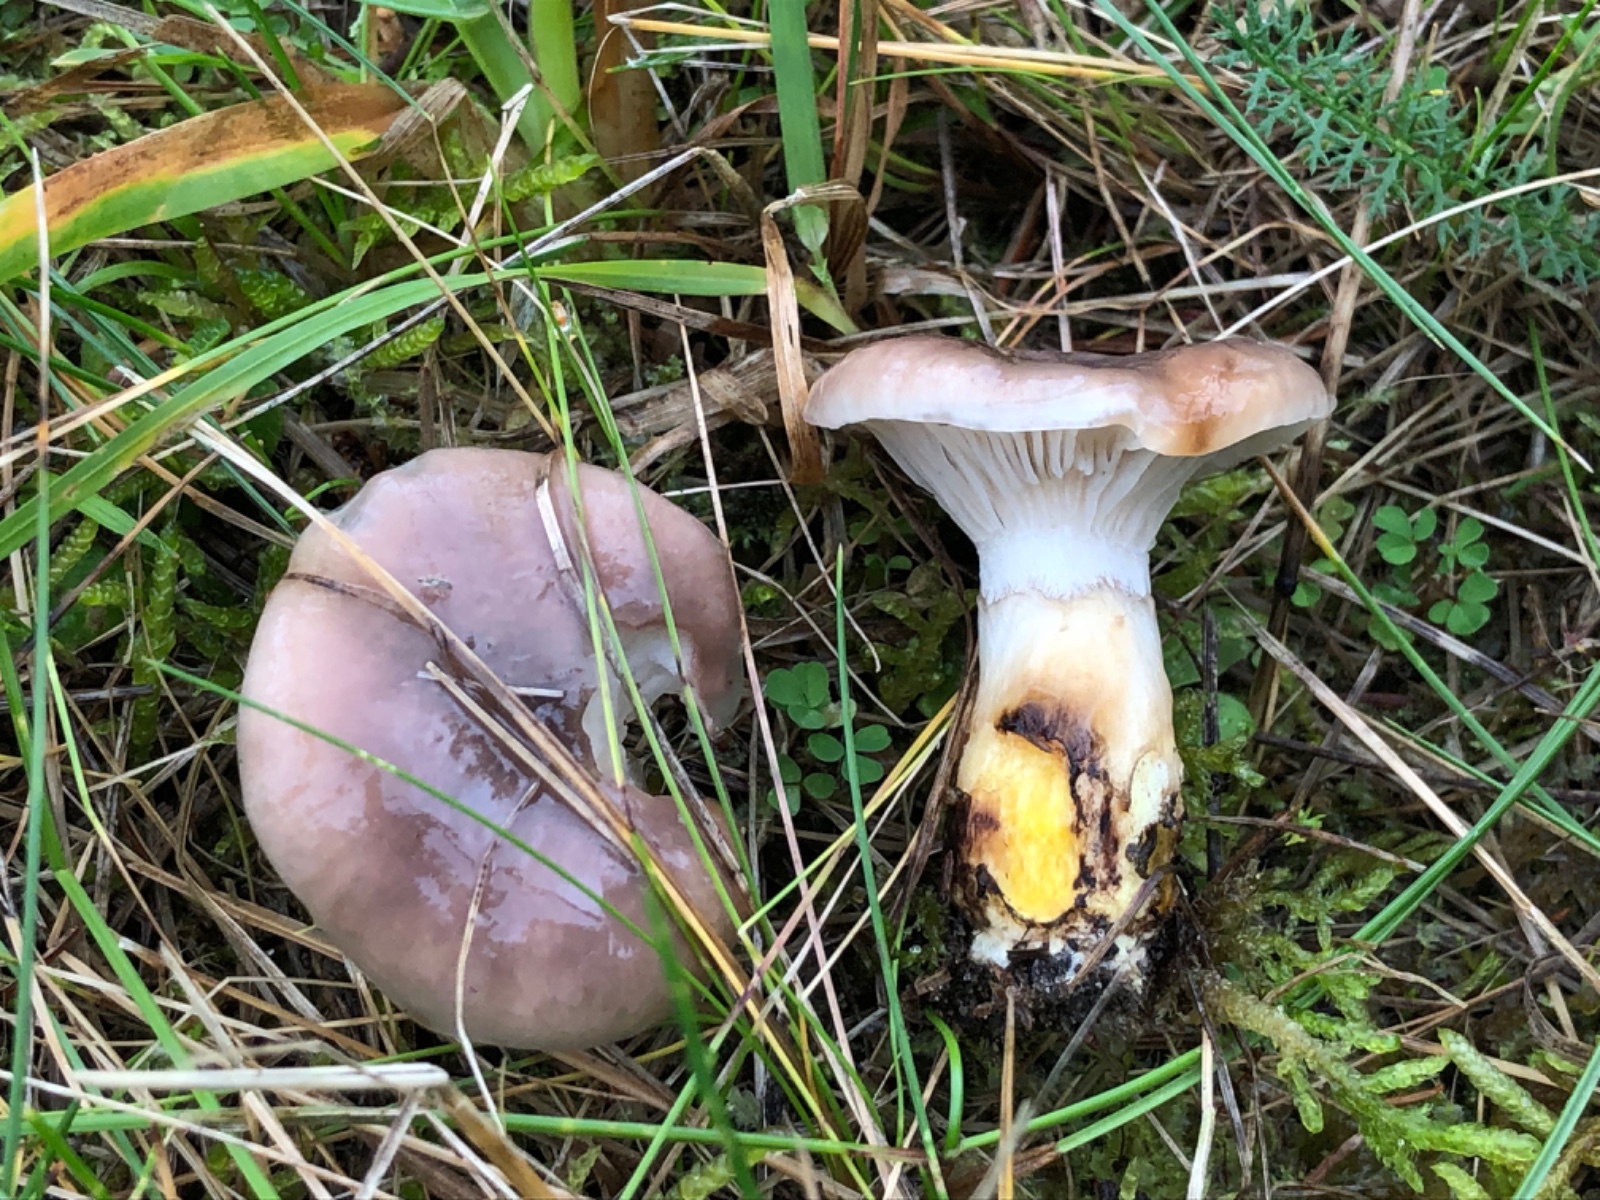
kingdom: Fungi
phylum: Basidiomycota
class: Agaricomycetes
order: Boletales
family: Gomphidiaceae
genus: Gomphidius
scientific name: Gomphidius glutinosus
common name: grå slimslør
